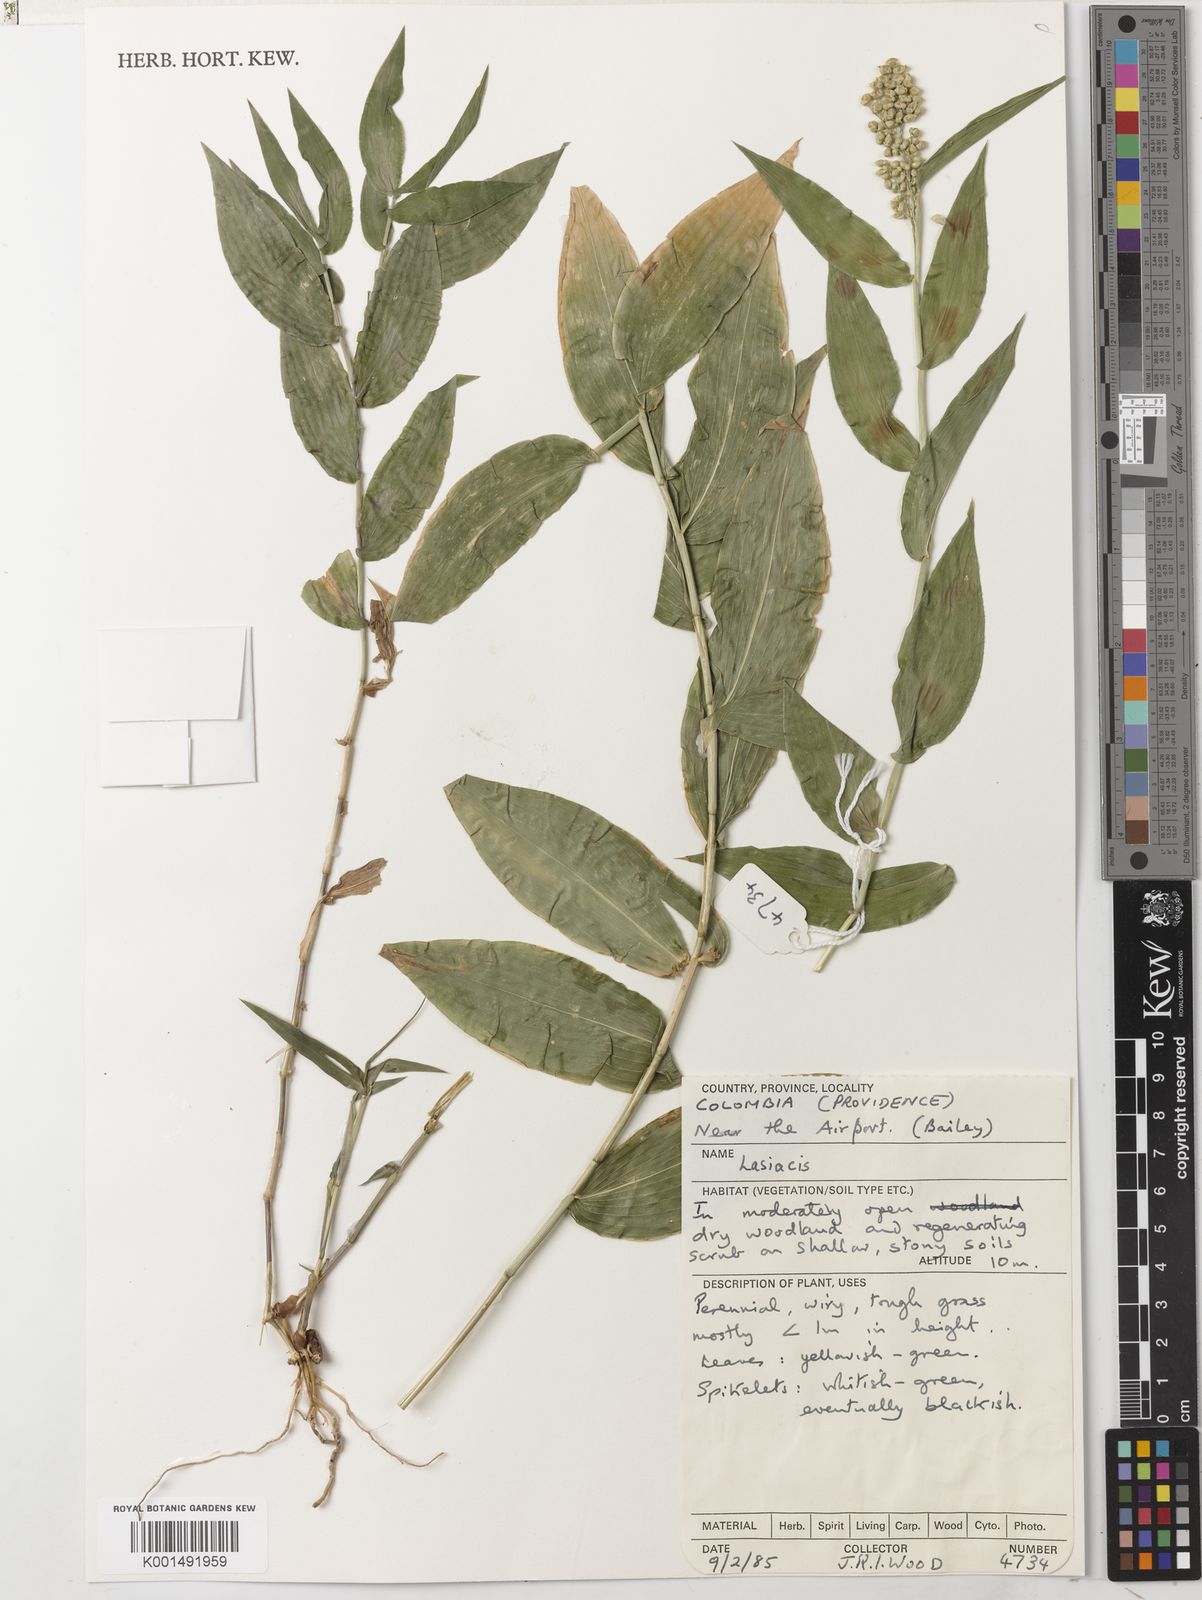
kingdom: Plantae
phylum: Tracheophyta
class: Liliopsida
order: Poales
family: Poaceae
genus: Lasiacis
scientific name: Lasiacis ruscifolia
